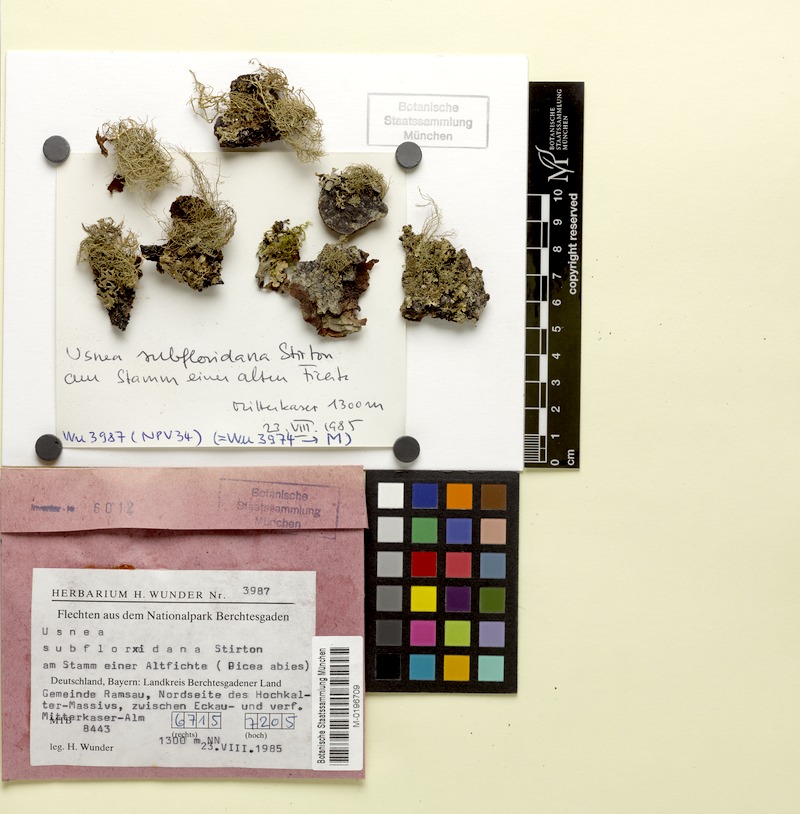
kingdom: Fungi
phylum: Ascomycota
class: Lecanoromycetes
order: Lecanorales
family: Parmeliaceae
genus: Usnea
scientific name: Usnea subfloridana
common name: Boreal beard lichen
